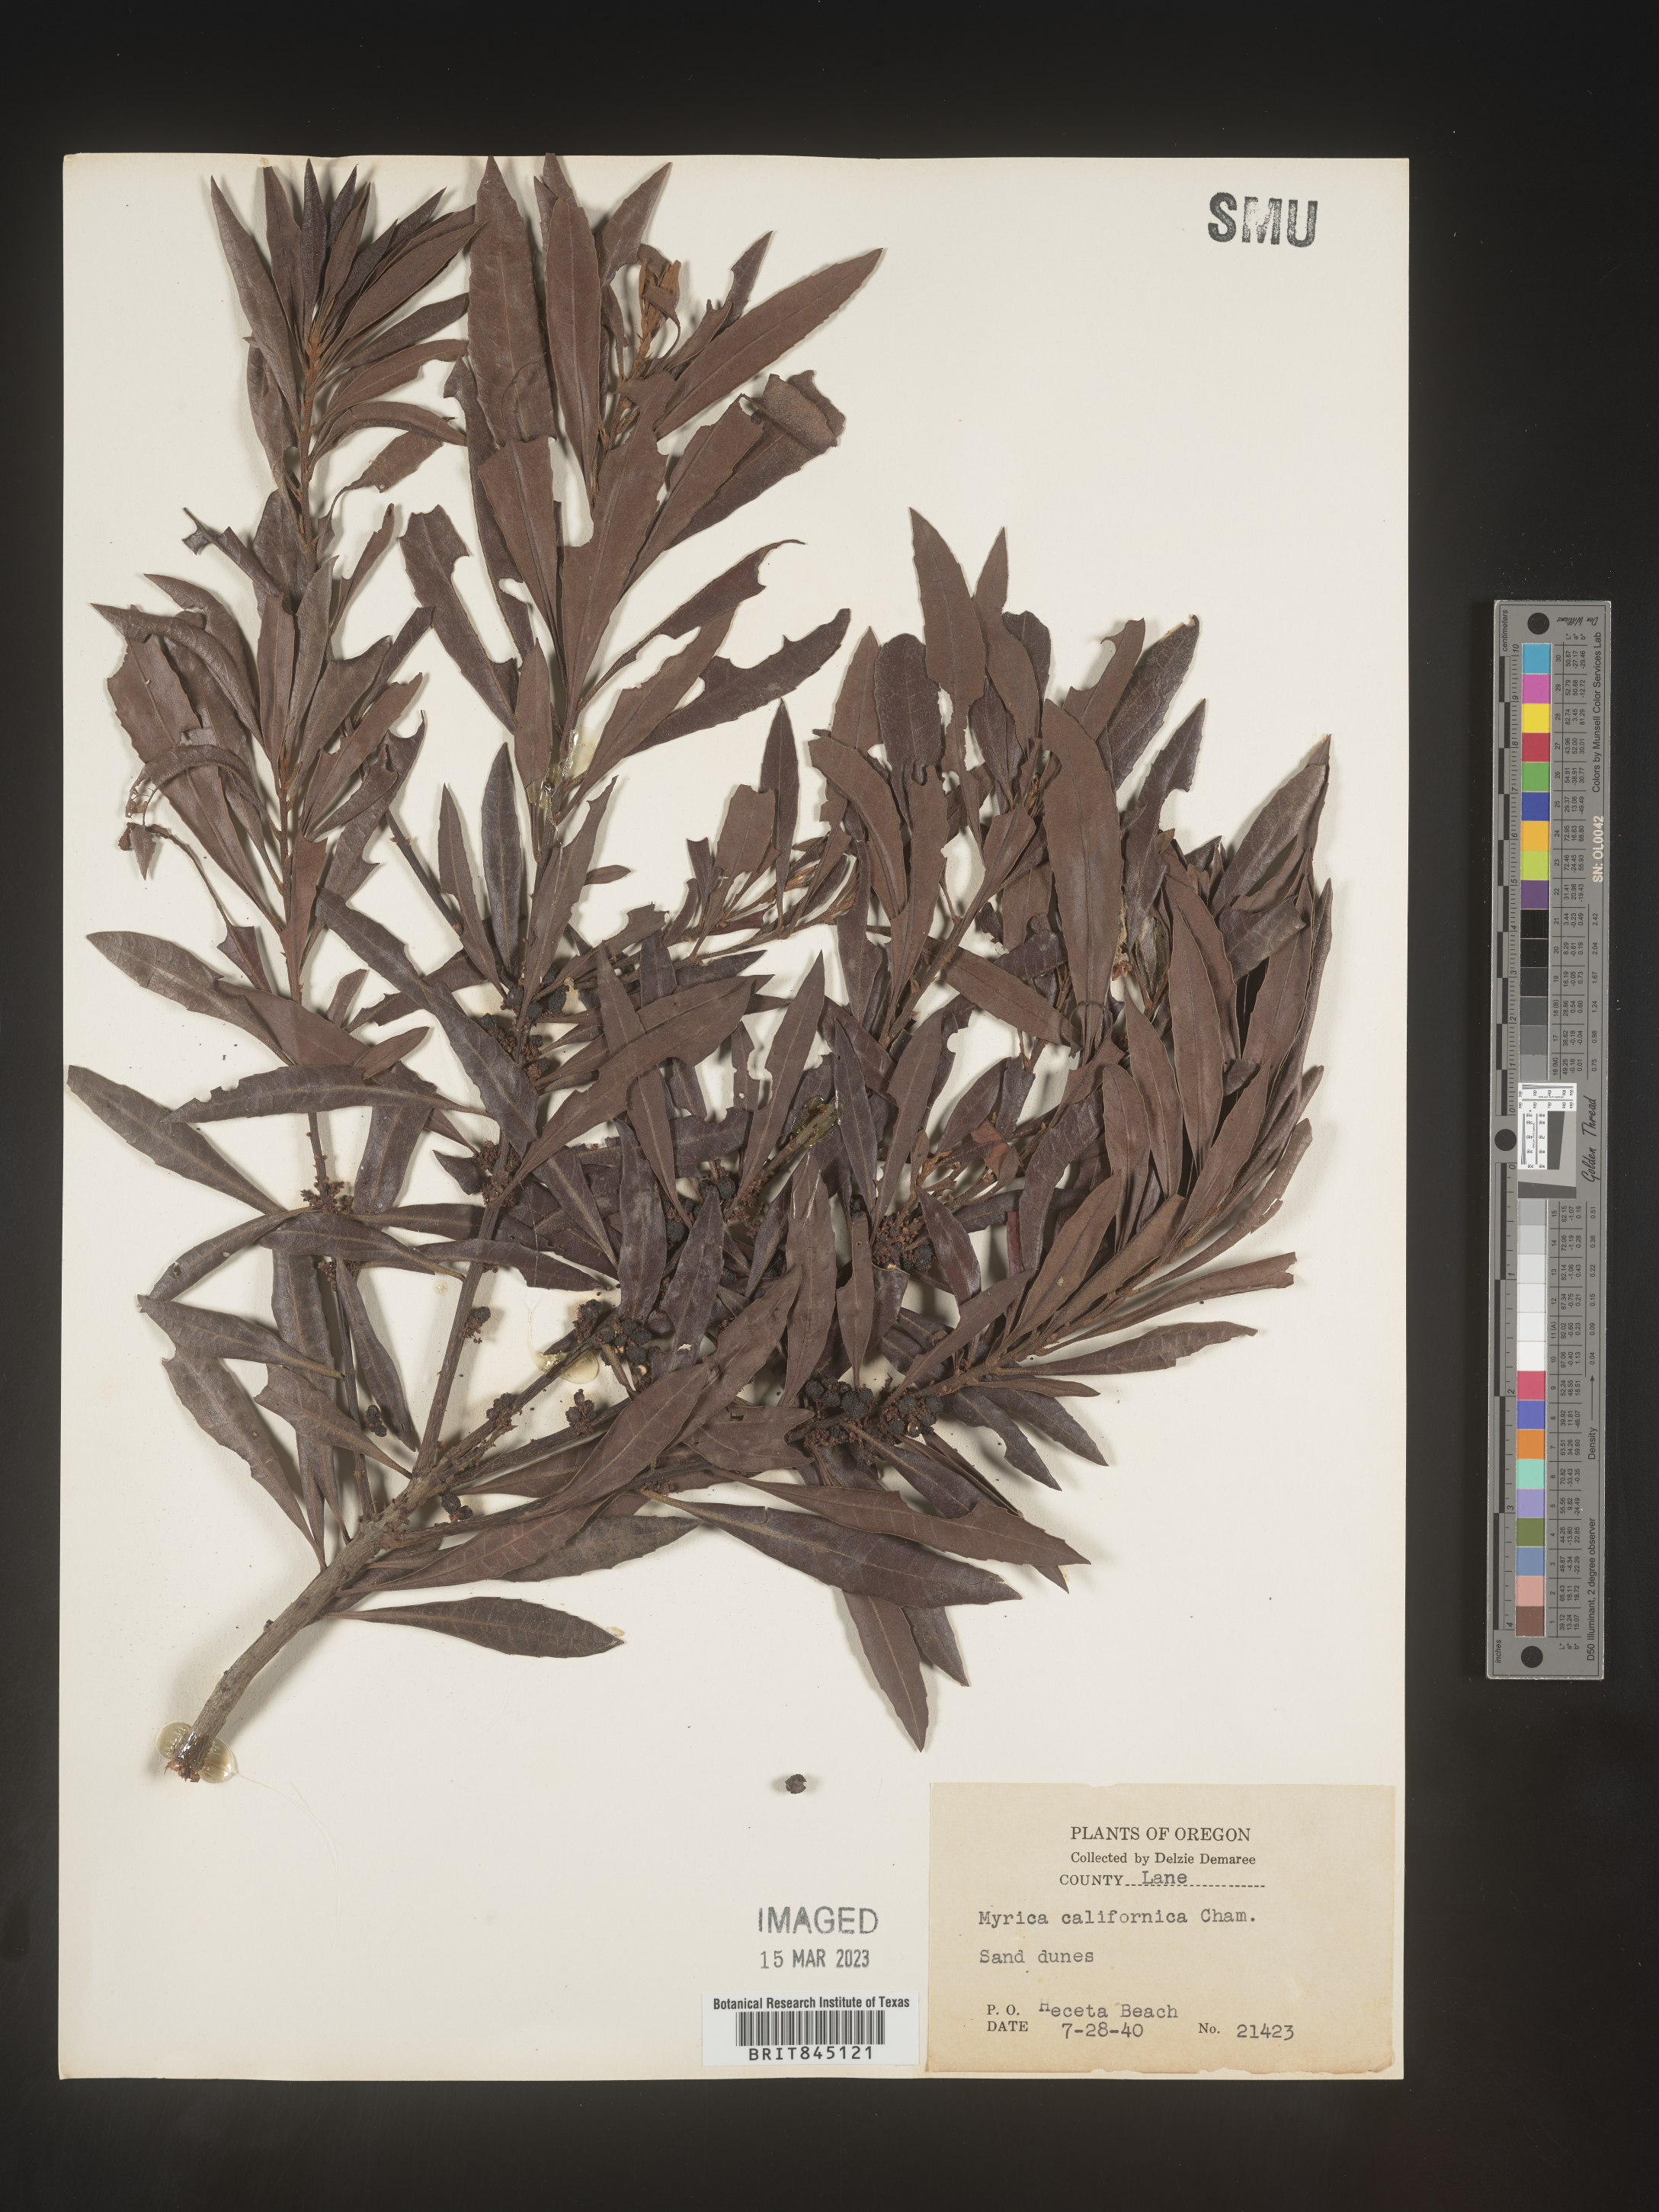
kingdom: Plantae
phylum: Tracheophyta
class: Magnoliopsida
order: Fagales
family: Myricaceae
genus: Morella
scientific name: Morella californica
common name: California wax-myrtle
